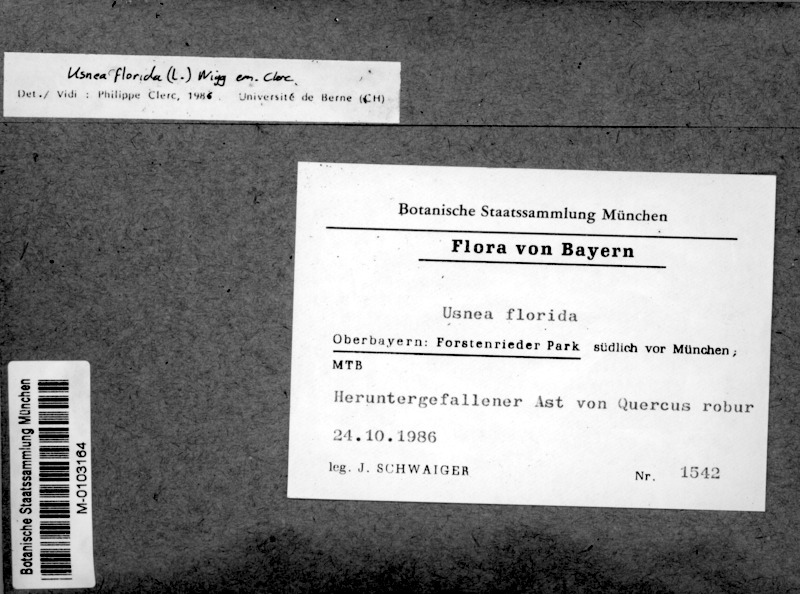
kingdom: Fungi
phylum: Ascomycota
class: Lecanoromycetes
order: Lecanorales
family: Parmeliaceae
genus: Usnea
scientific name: Usnea florida
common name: Witches' whiskers lichen
